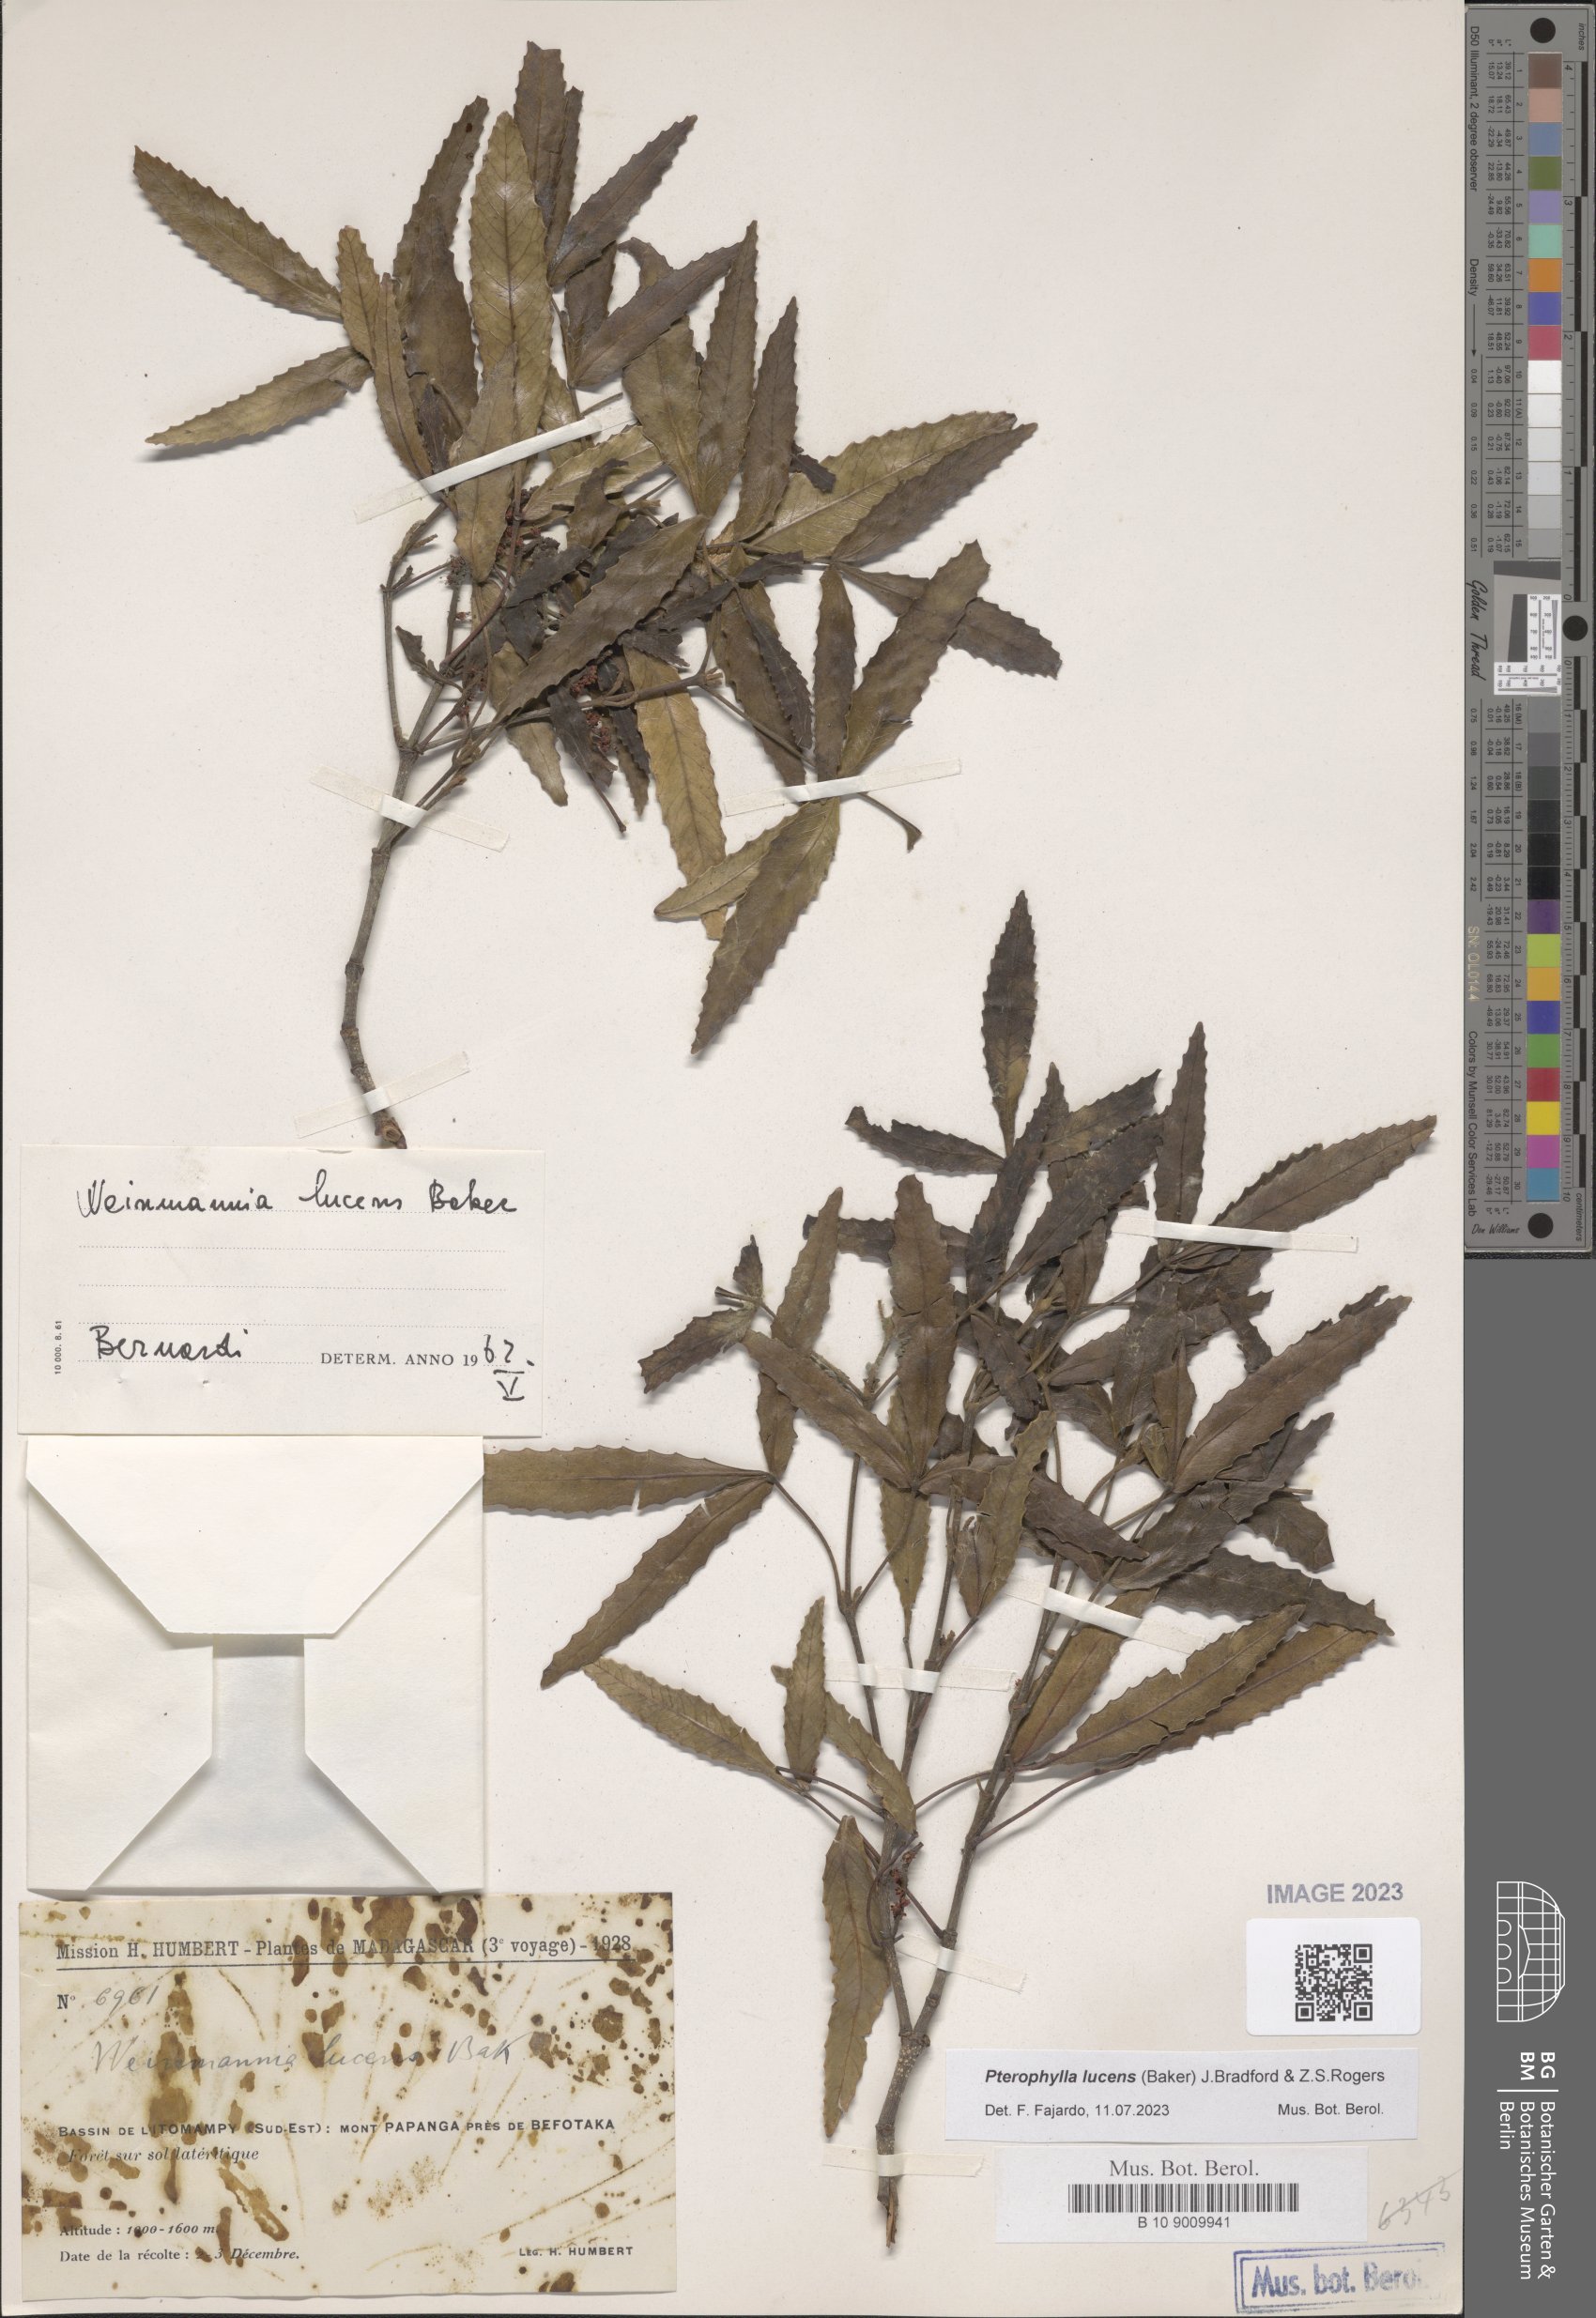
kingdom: Plantae
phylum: Tracheophyta
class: Magnoliopsida
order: Oxalidales
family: Cunoniaceae
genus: Pterophylla
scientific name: Pterophylla lucens
